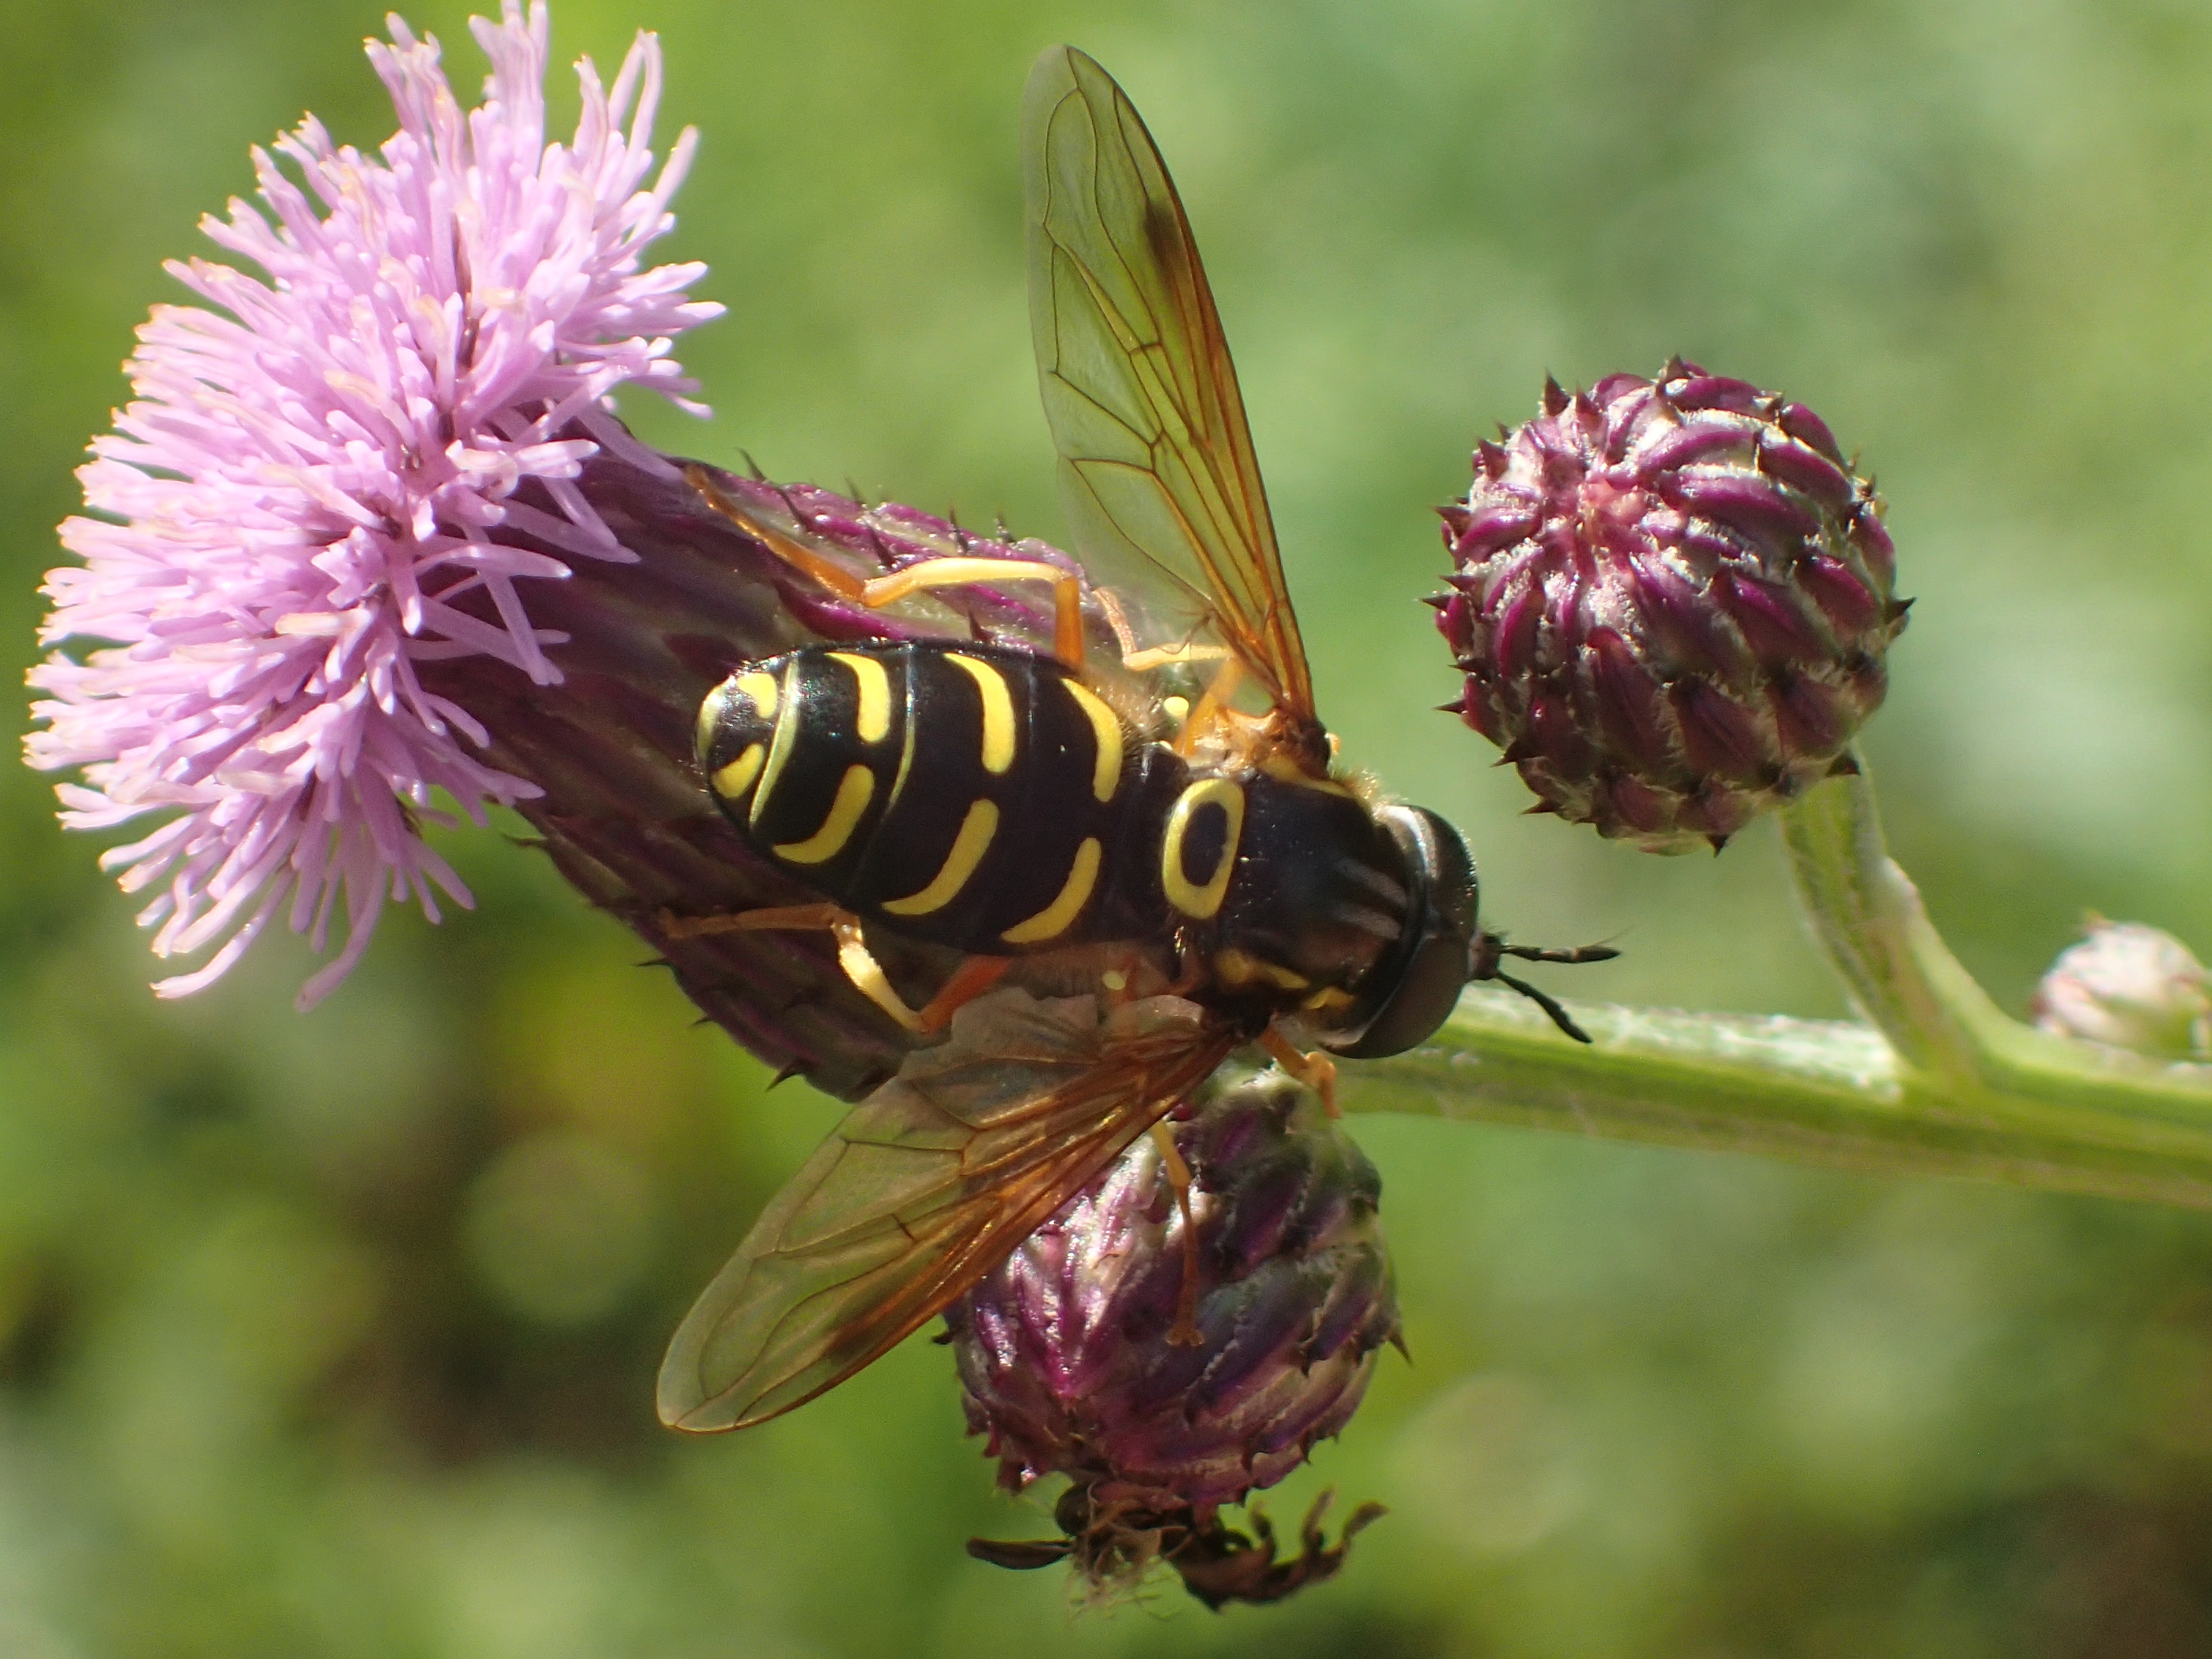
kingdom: Animalia
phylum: Arthropoda
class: Insecta
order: Diptera
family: Syrphidae
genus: Chrysotoxum
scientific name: Chrysotoxum festivum
